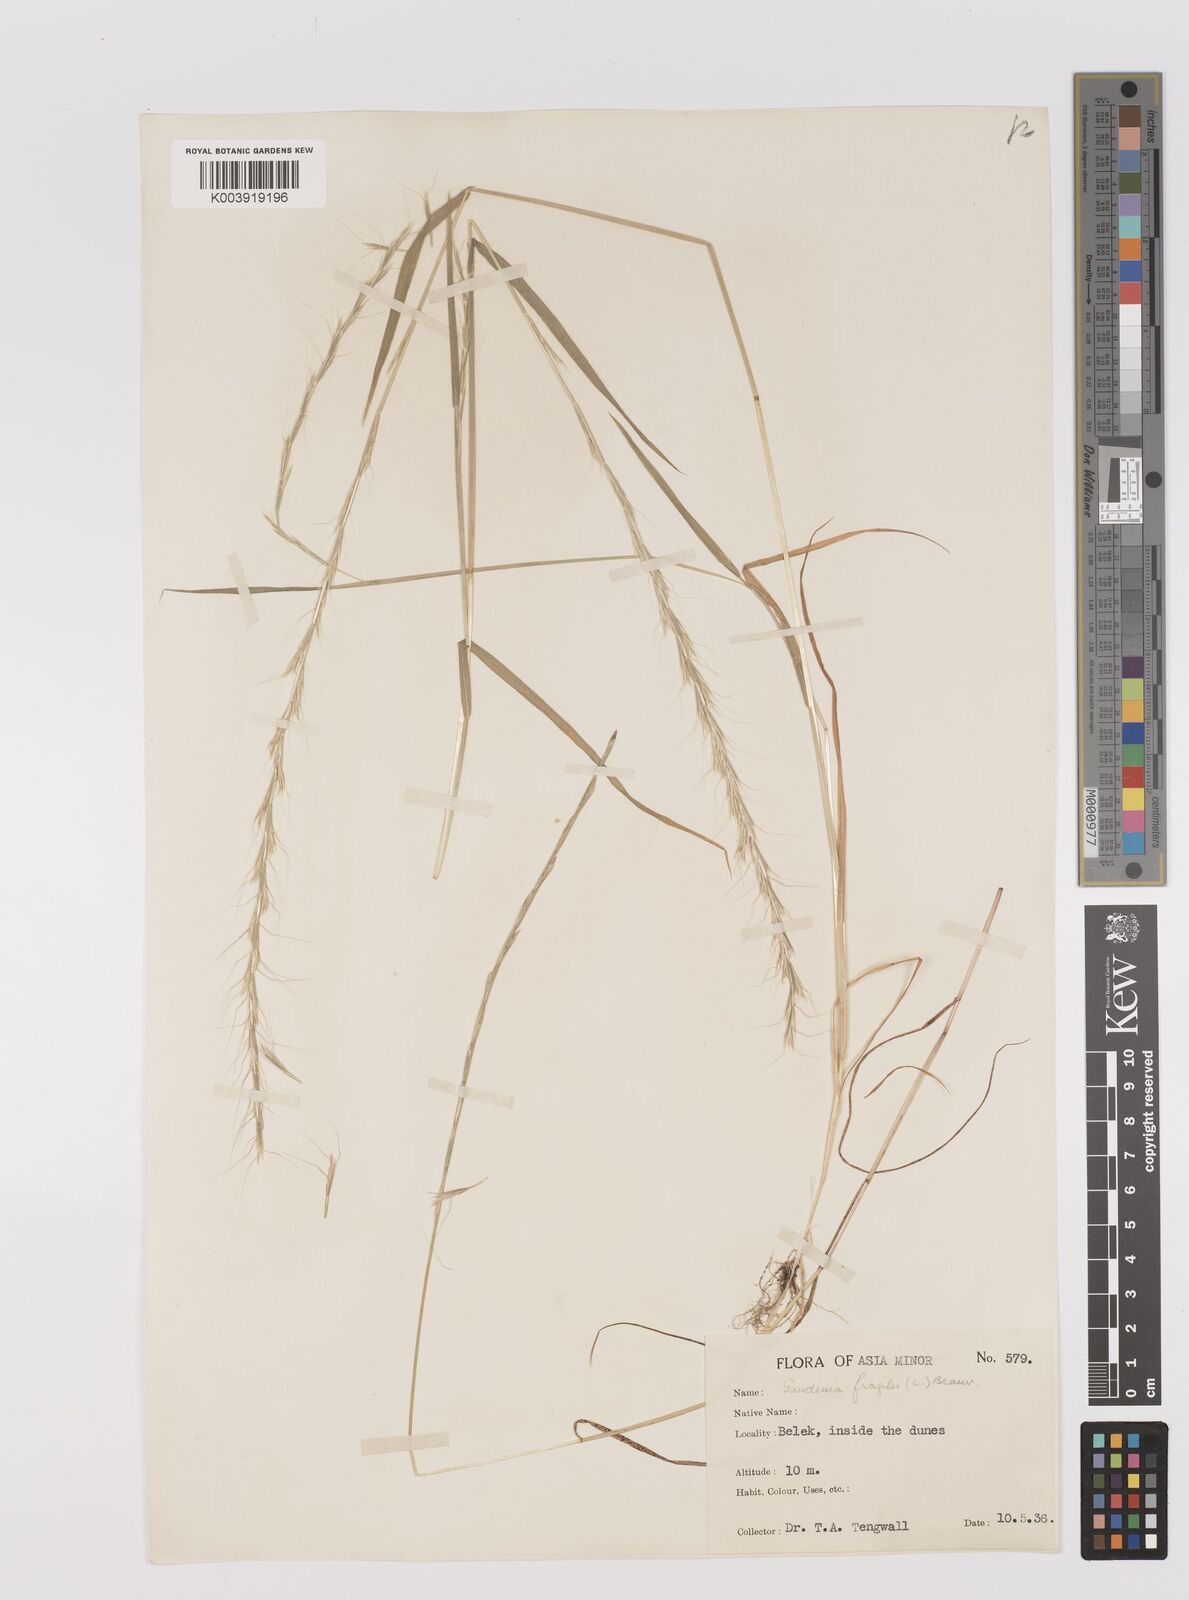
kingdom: Plantae
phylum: Tracheophyta
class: Liliopsida
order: Poales
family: Poaceae
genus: Gaudinia
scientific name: Gaudinia fragilis
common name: French oat-grass
